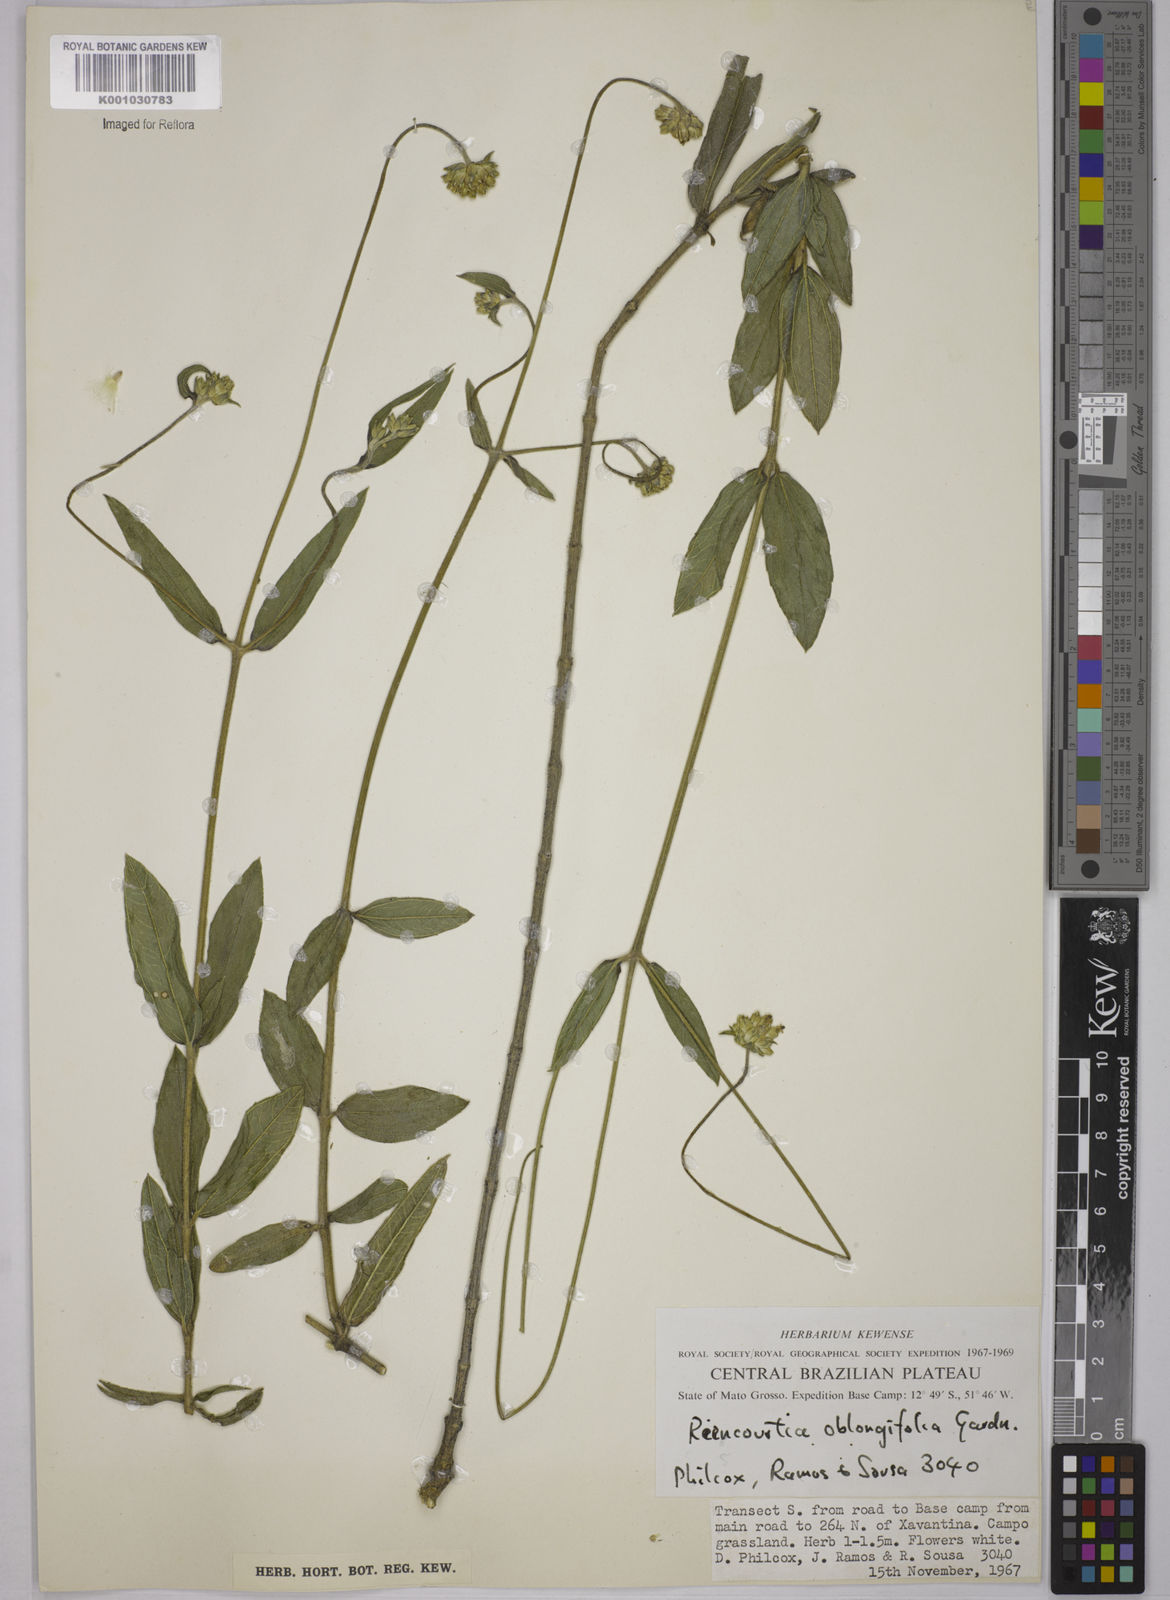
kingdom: Plantae
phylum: Tracheophyta
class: Magnoliopsida
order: Asterales
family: Asteraceae
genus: Riencourtia
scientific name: Riencourtia oblongifolia
